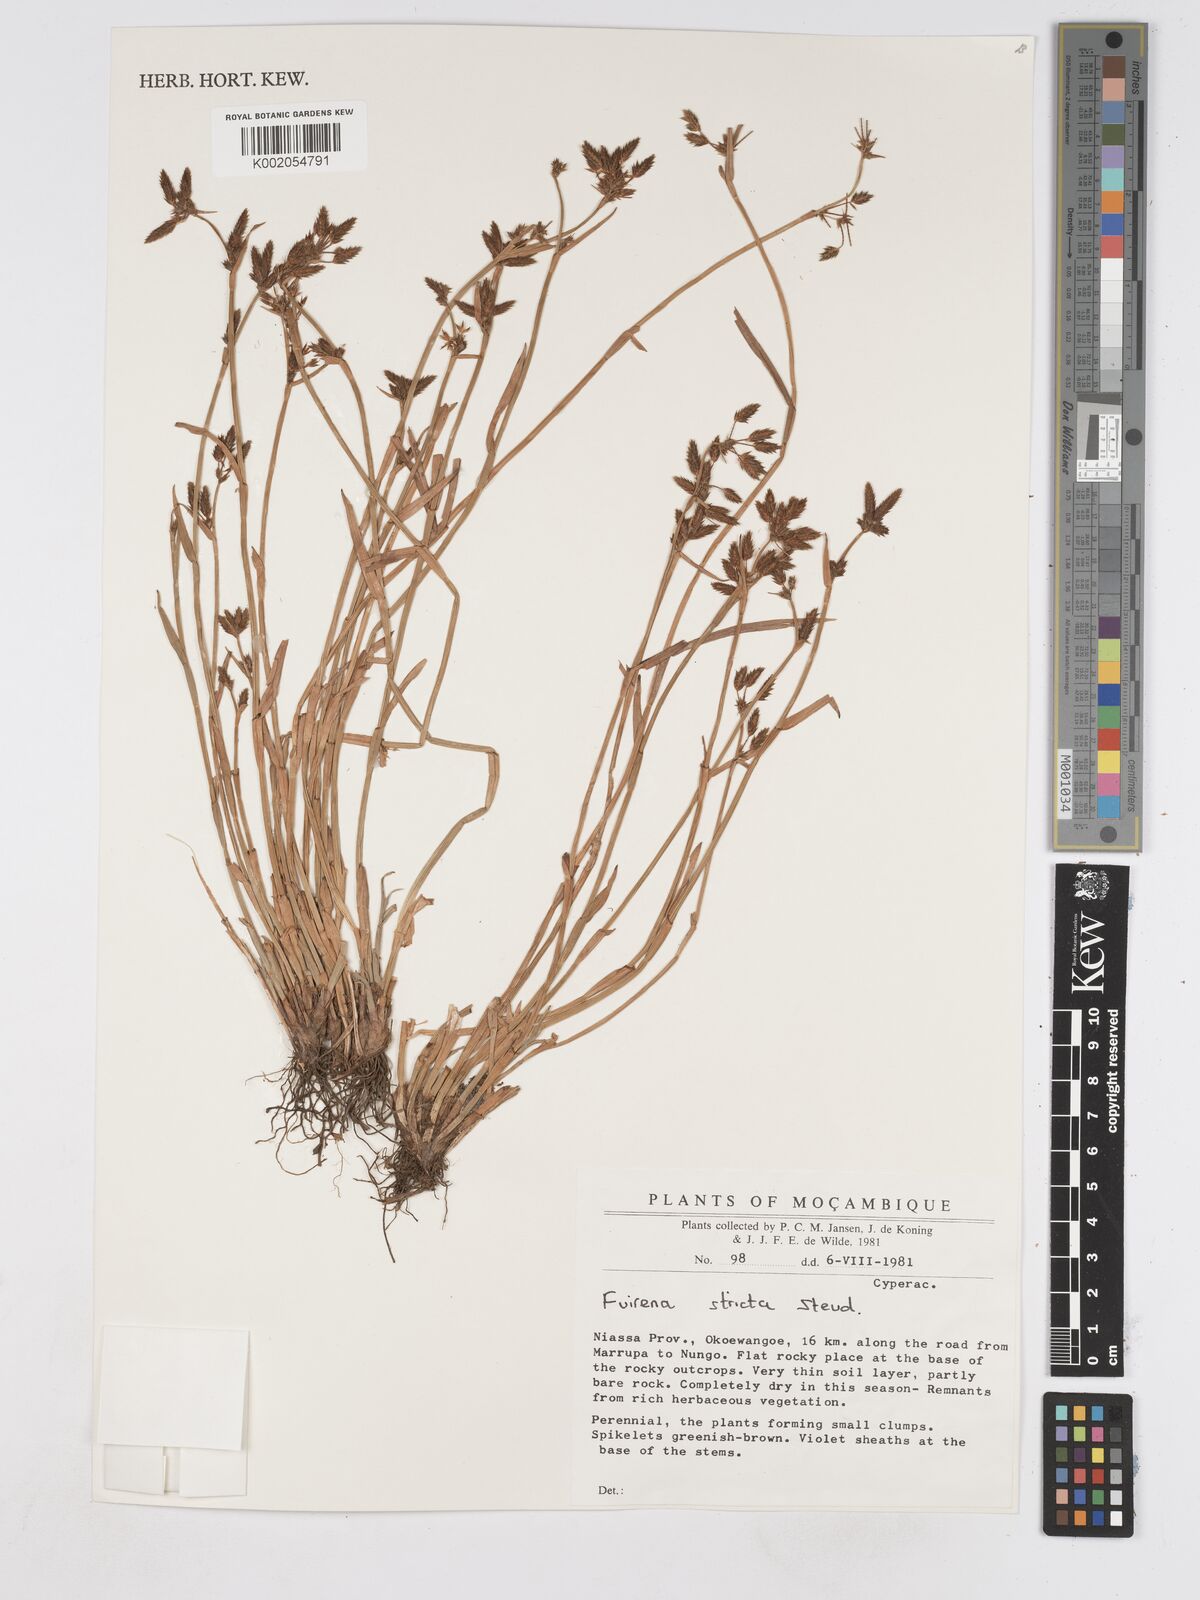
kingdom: Plantae
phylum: Tracheophyta
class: Liliopsida
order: Poales
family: Cyperaceae
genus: Fuirena
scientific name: Fuirena stricta
